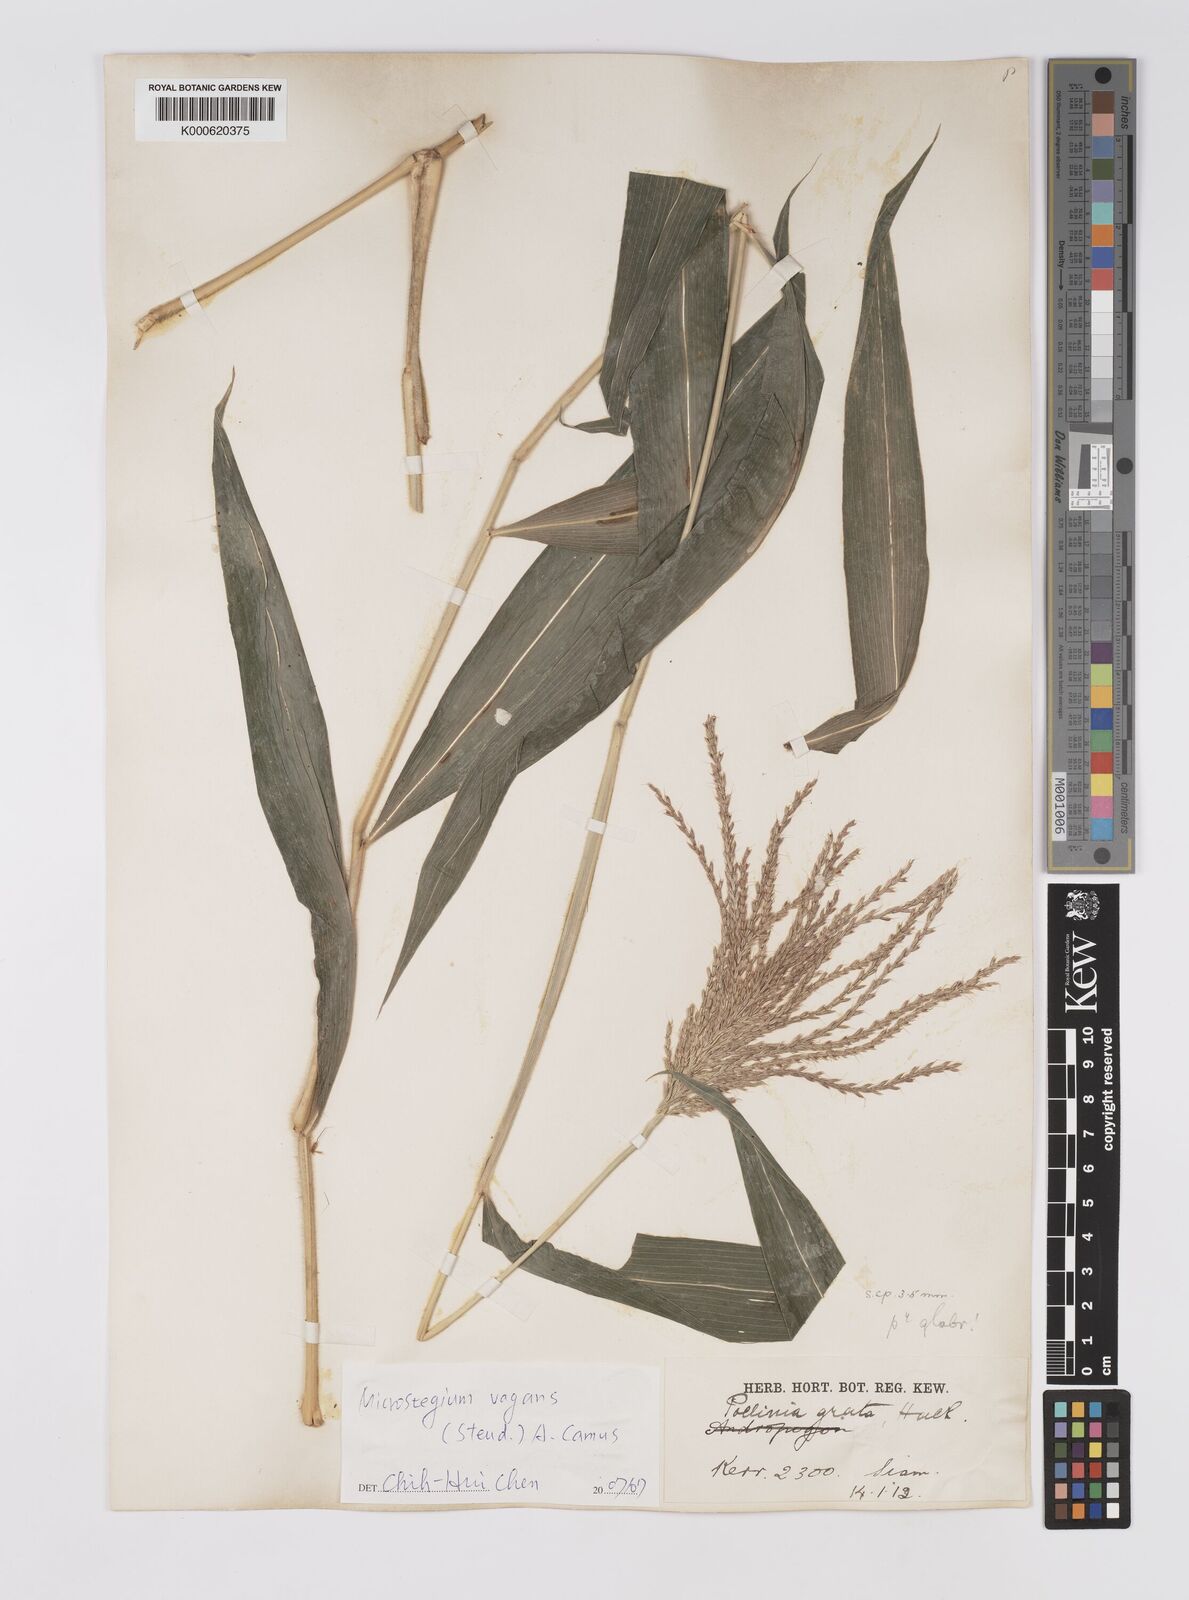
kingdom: Plantae
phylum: Tracheophyta
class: Liliopsida
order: Poales
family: Poaceae
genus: Microstegium
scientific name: Microstegium fasciculatum
